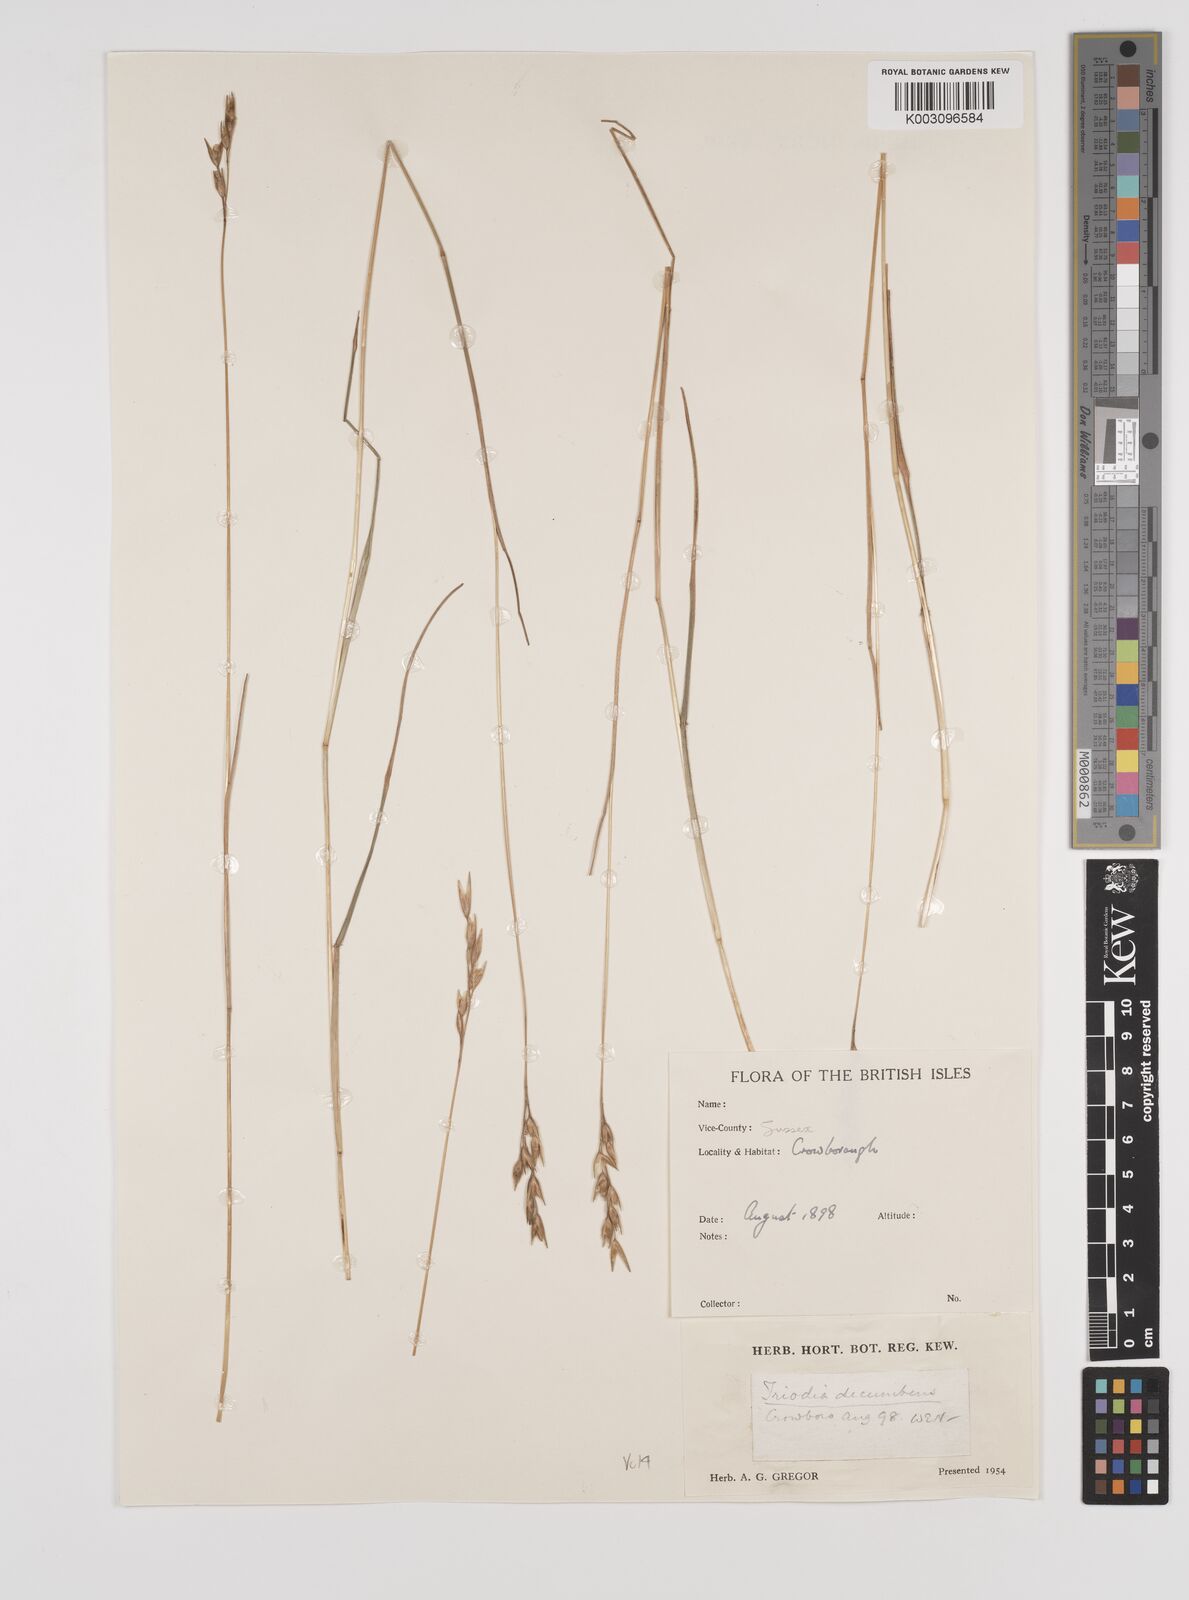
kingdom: Plantae
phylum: Tracheophyta
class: Liliopsida
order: Poales
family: Poaceae
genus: Danthonia
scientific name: Danthonia decumbens
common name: Common heathgrass
